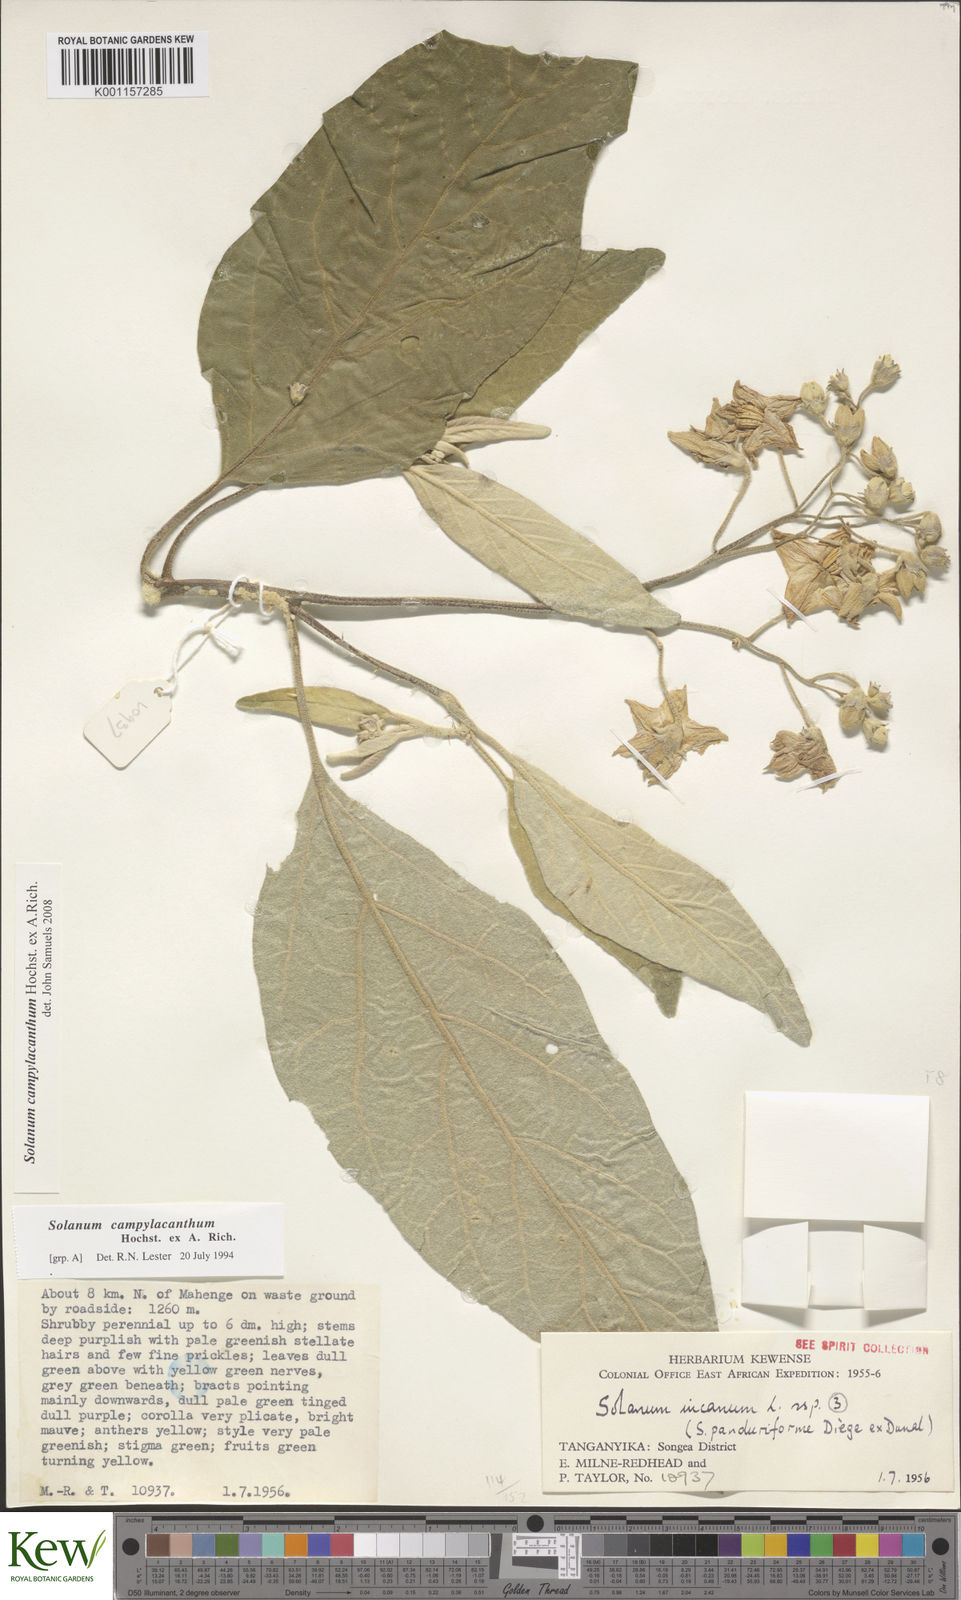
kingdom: Plantae
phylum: Tracheophyta
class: Magnoliopsida
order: Solanales
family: Solanaceae
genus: Solanum
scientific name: Solanum campylacanthum
